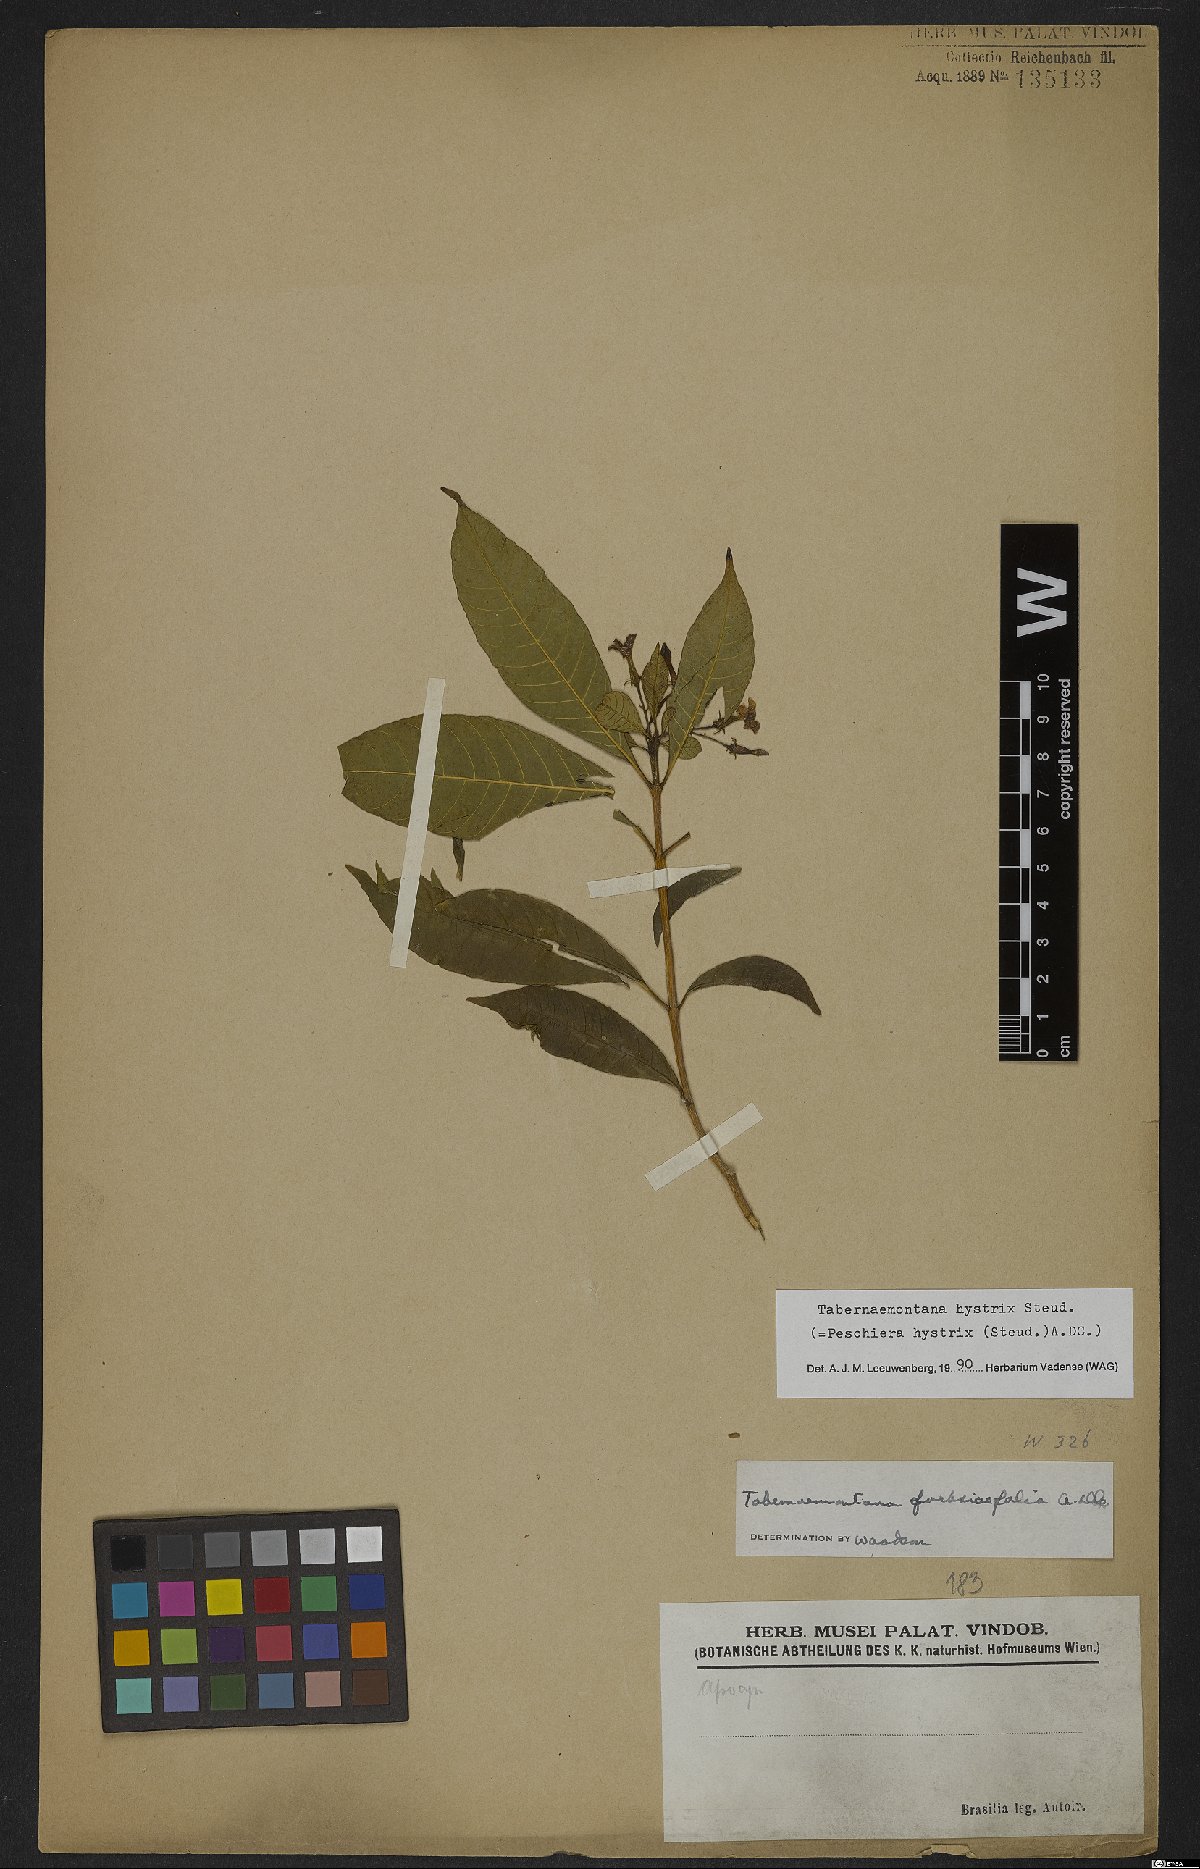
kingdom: Plantae
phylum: Tracheophyta
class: Magnoliopsida
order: Gentianales
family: Apocynaceae
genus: Tabernaemontana
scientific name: Tabernaemontana hystrix
